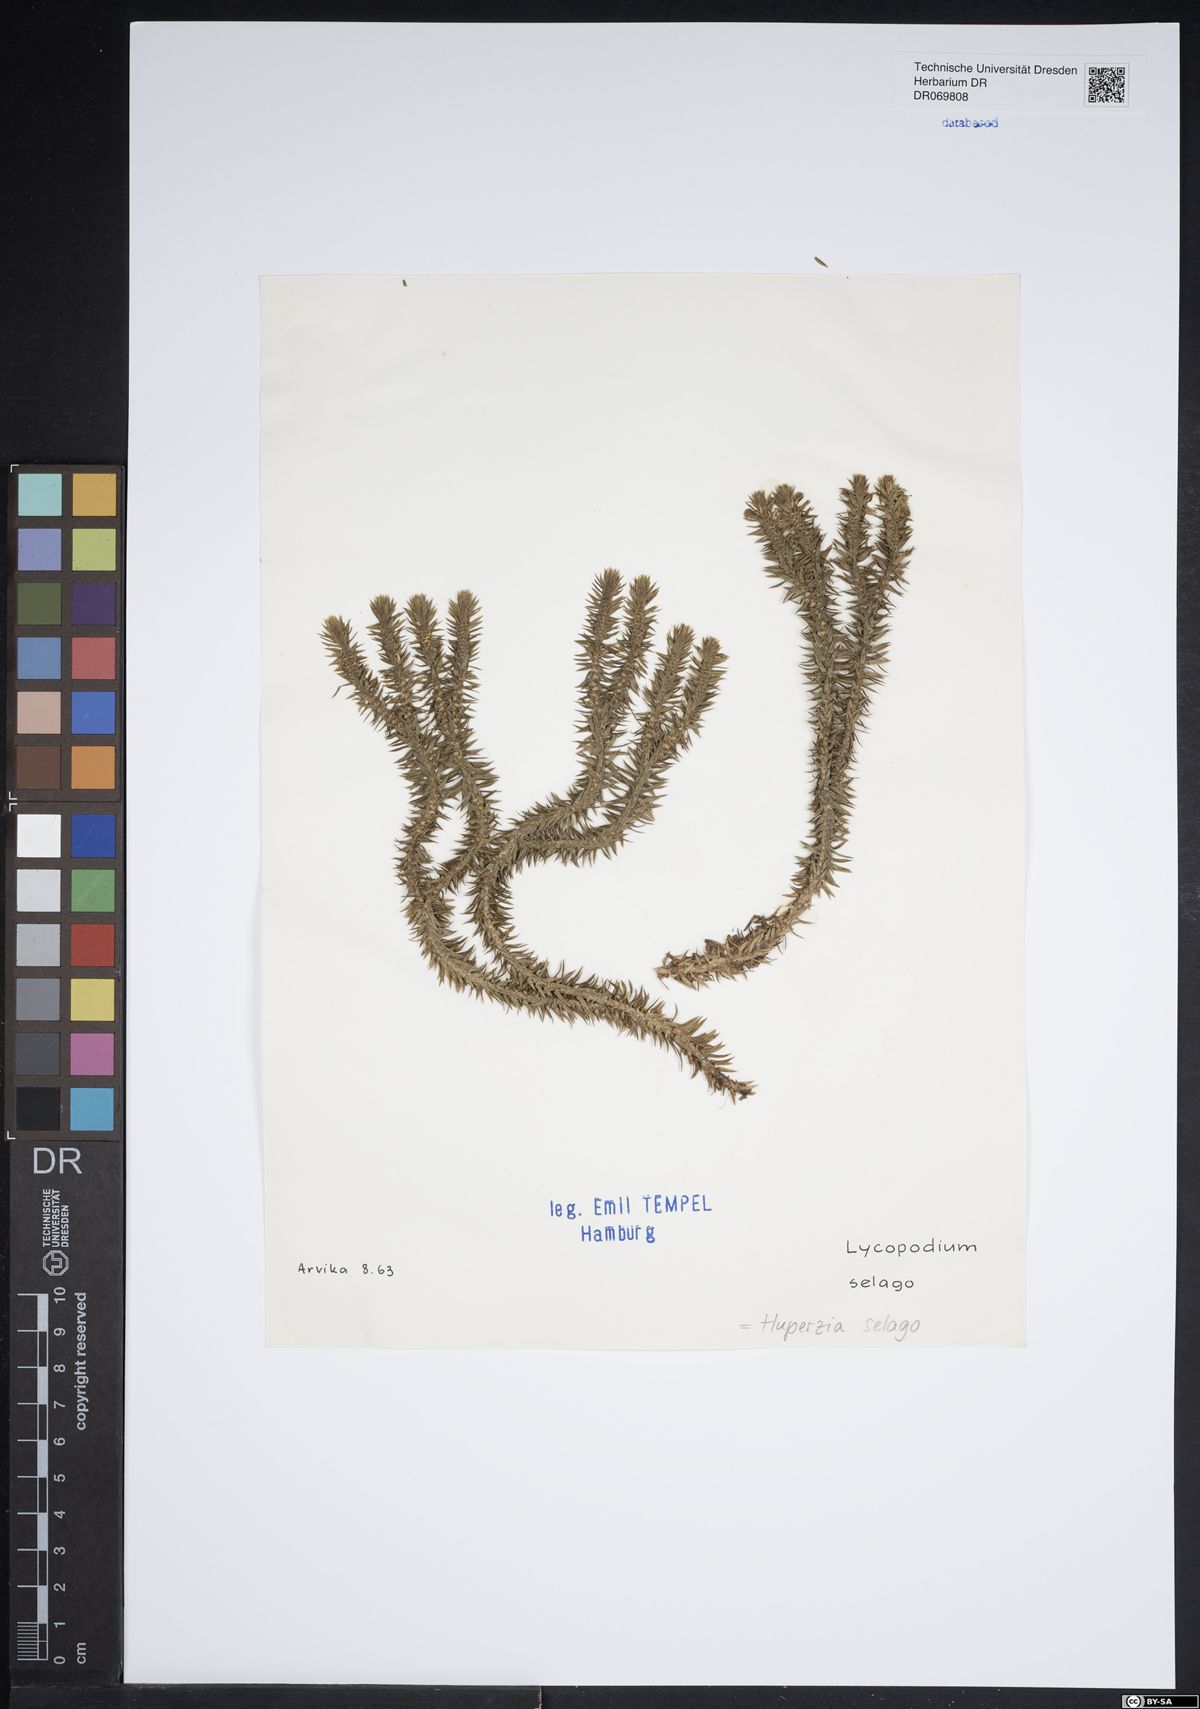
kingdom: Plantae
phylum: Tracheophyta
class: Lycopodiopsida
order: Lycopodiales
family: Lycopodiaceae
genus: Huperzia
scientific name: Huperzia selago
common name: Northern firmoss
